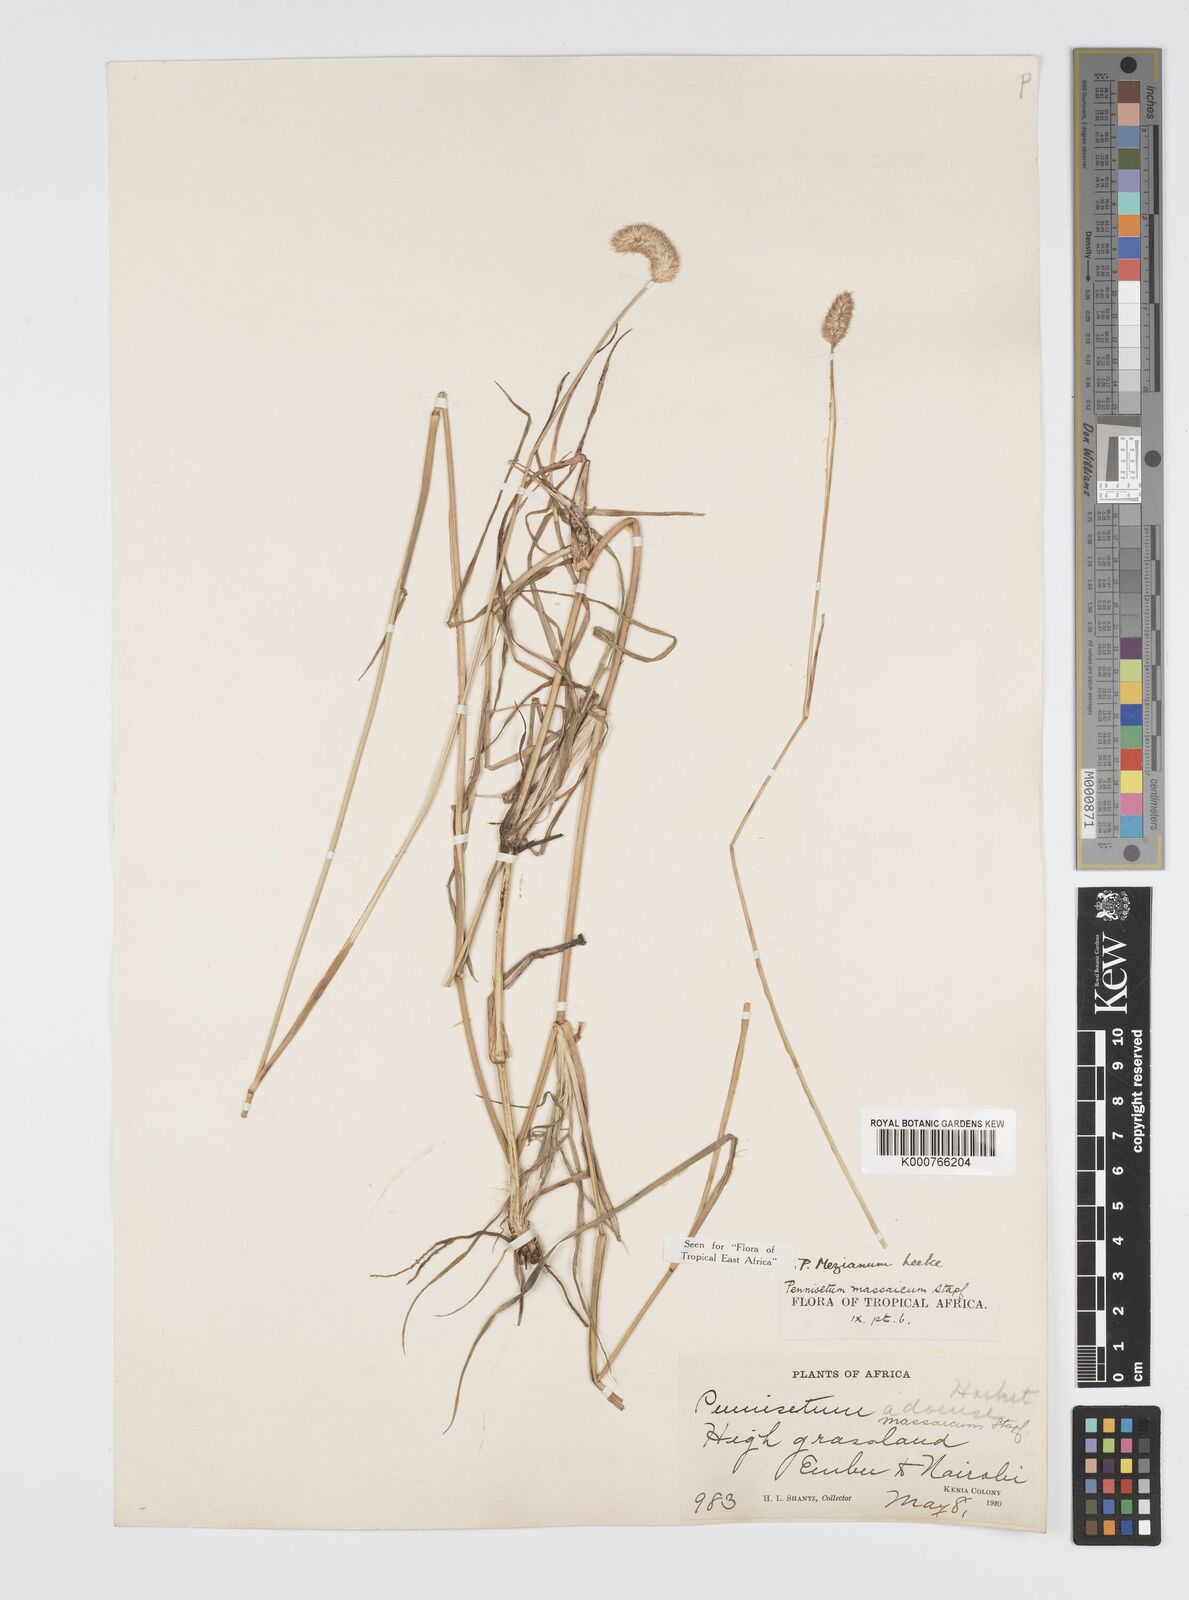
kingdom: Plantae
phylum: Tracheophyta
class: Liliopsida
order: Poales
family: Poaceae
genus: Cenchrus
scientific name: Cenchrus mezianus
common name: Bamboo grass
